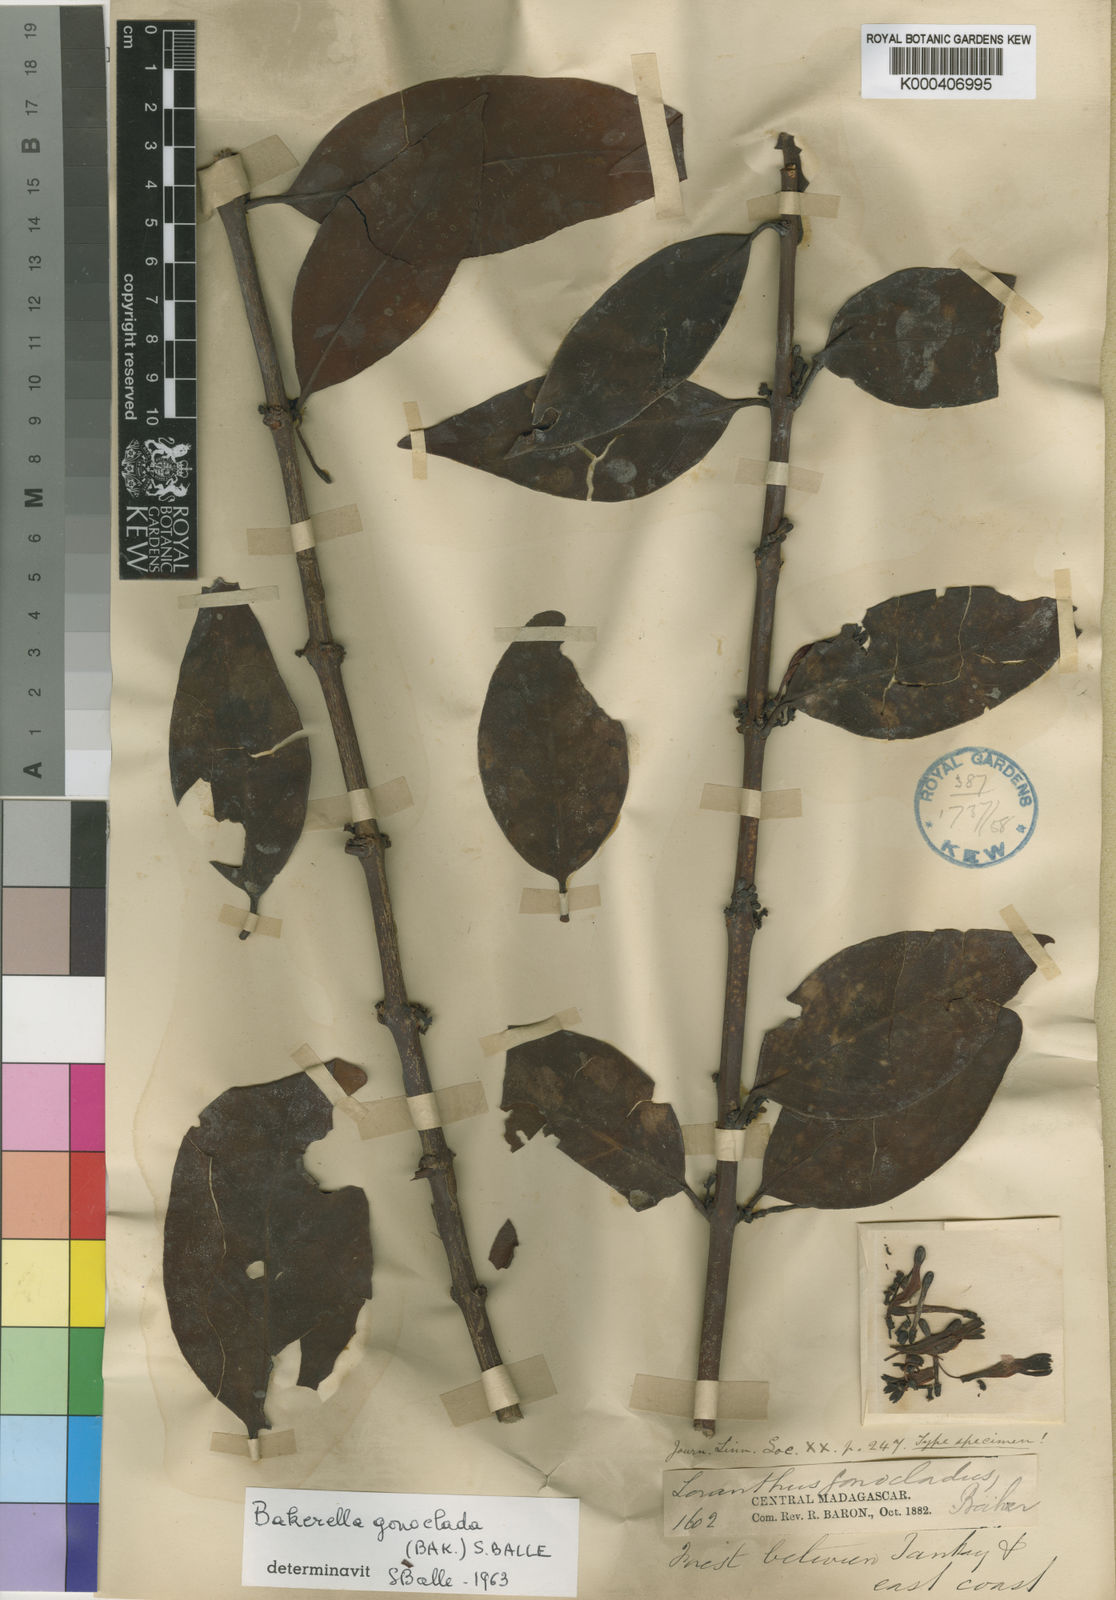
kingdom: Plantae
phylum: Tracheophyta
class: Magnoliopsida
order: Santalales
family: Loranthaceae
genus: Bakerella
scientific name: Bakerella gonoclada
